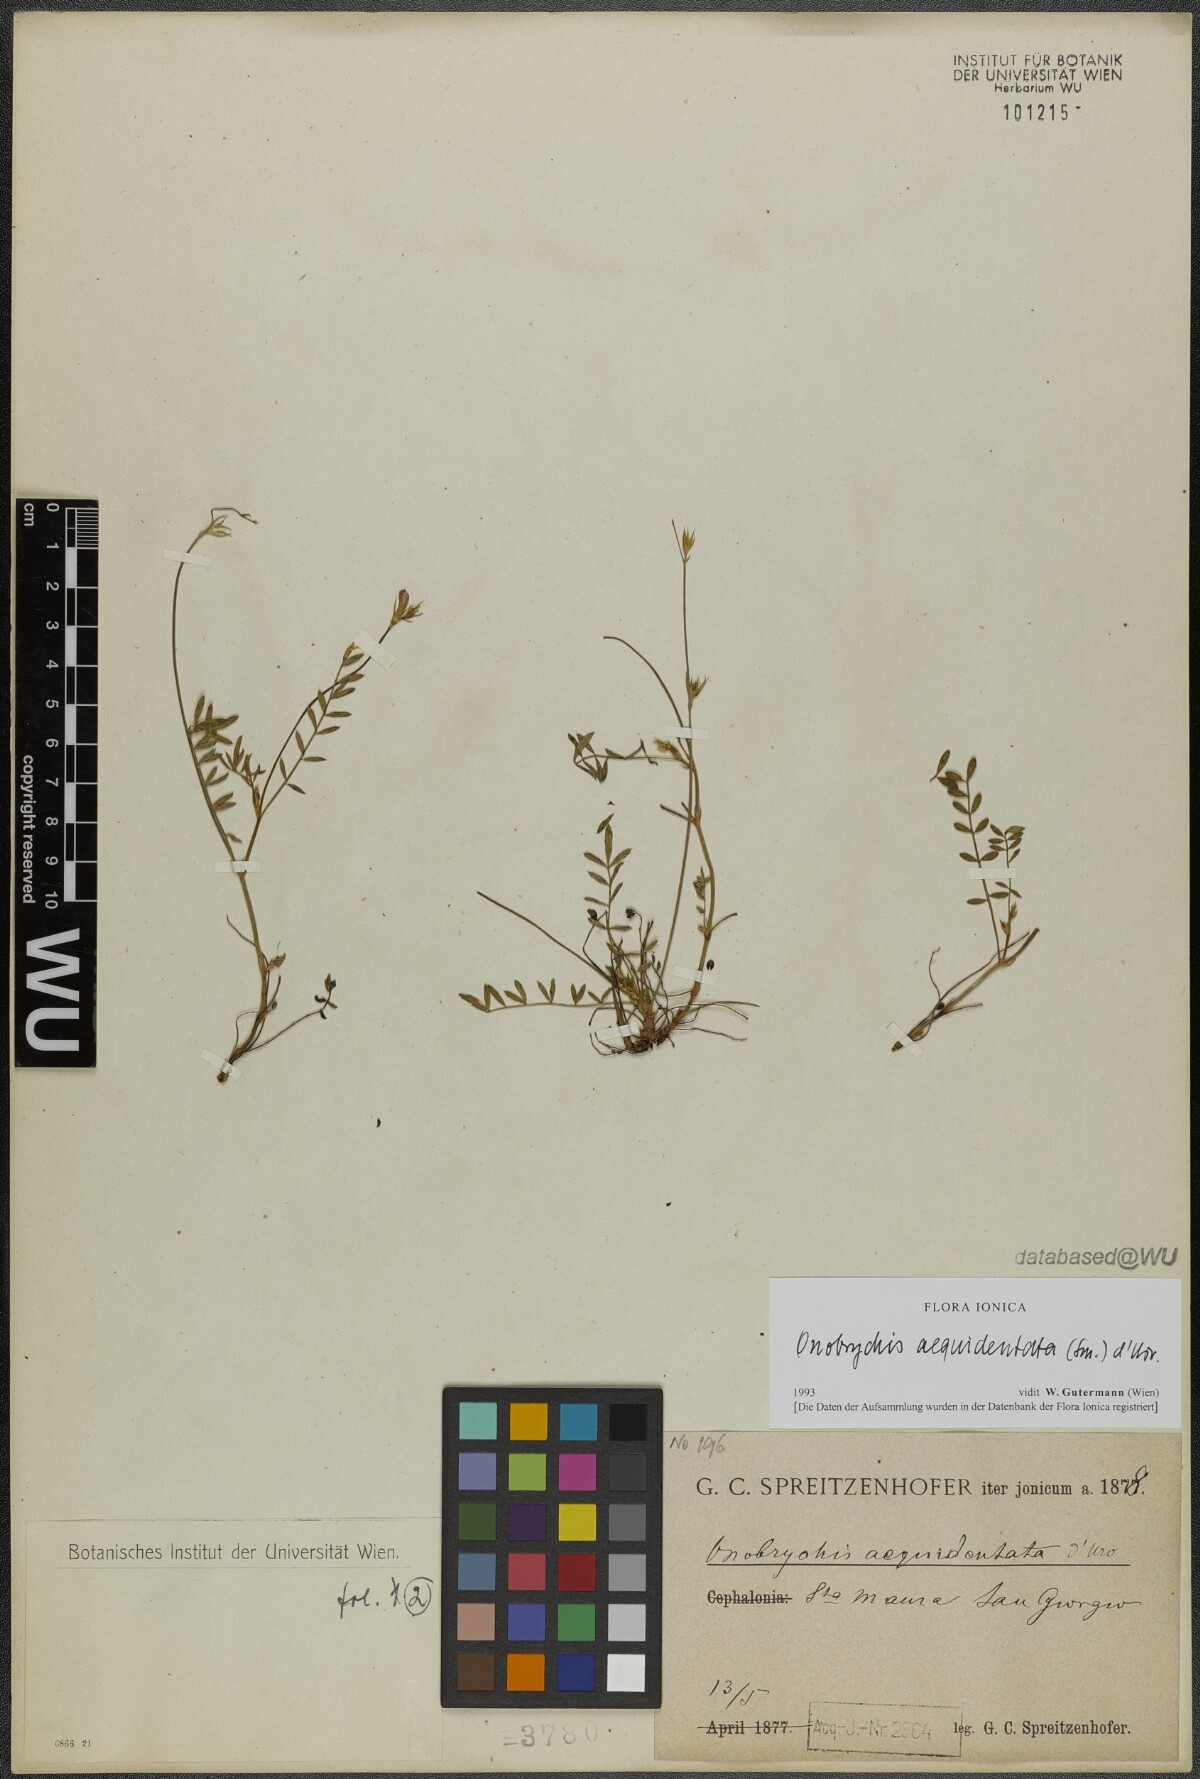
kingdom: Plantae
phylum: Tracheophyta
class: Magnoliopsida
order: Fabales
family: Fabaceae
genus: Onobrychis
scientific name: Onobrychis aequidentata
